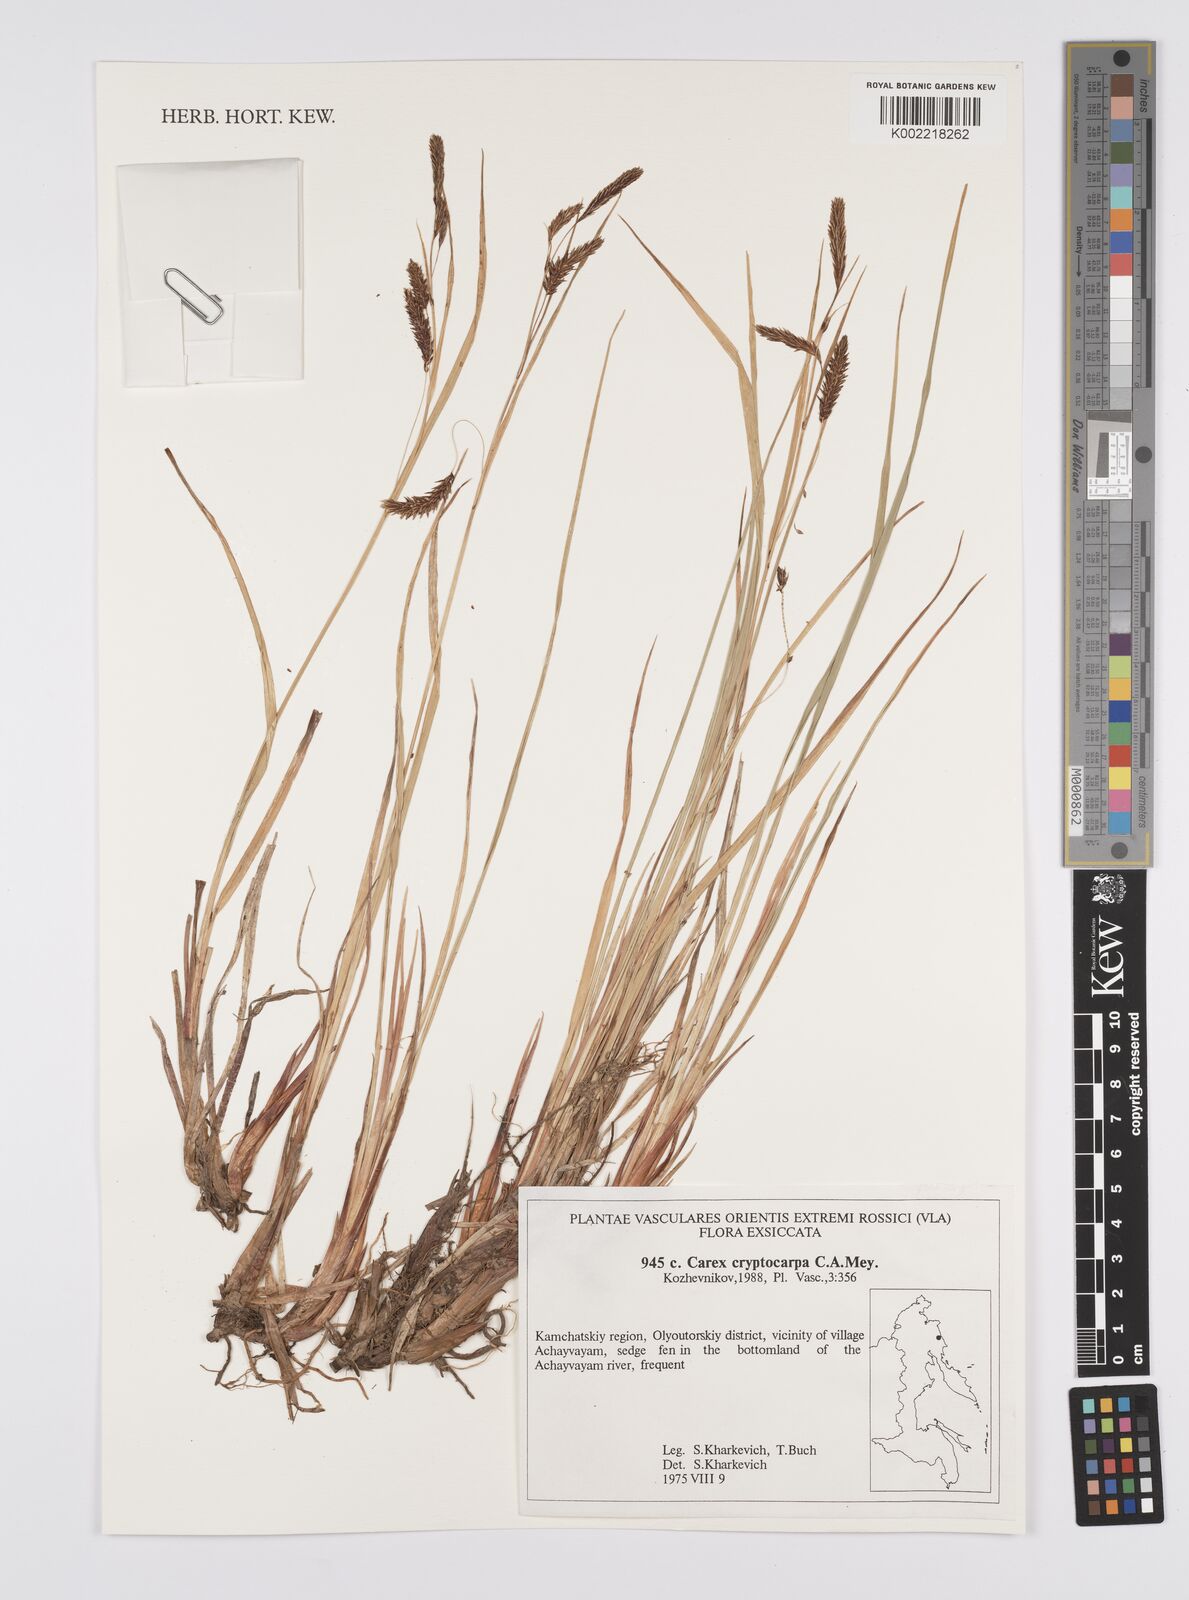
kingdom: Plantae
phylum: Tracheophyta
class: Liliopsida
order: Poales
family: Cyperaceae
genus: Carex
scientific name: Carex lyngbyei
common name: Lyngbye's sedge
